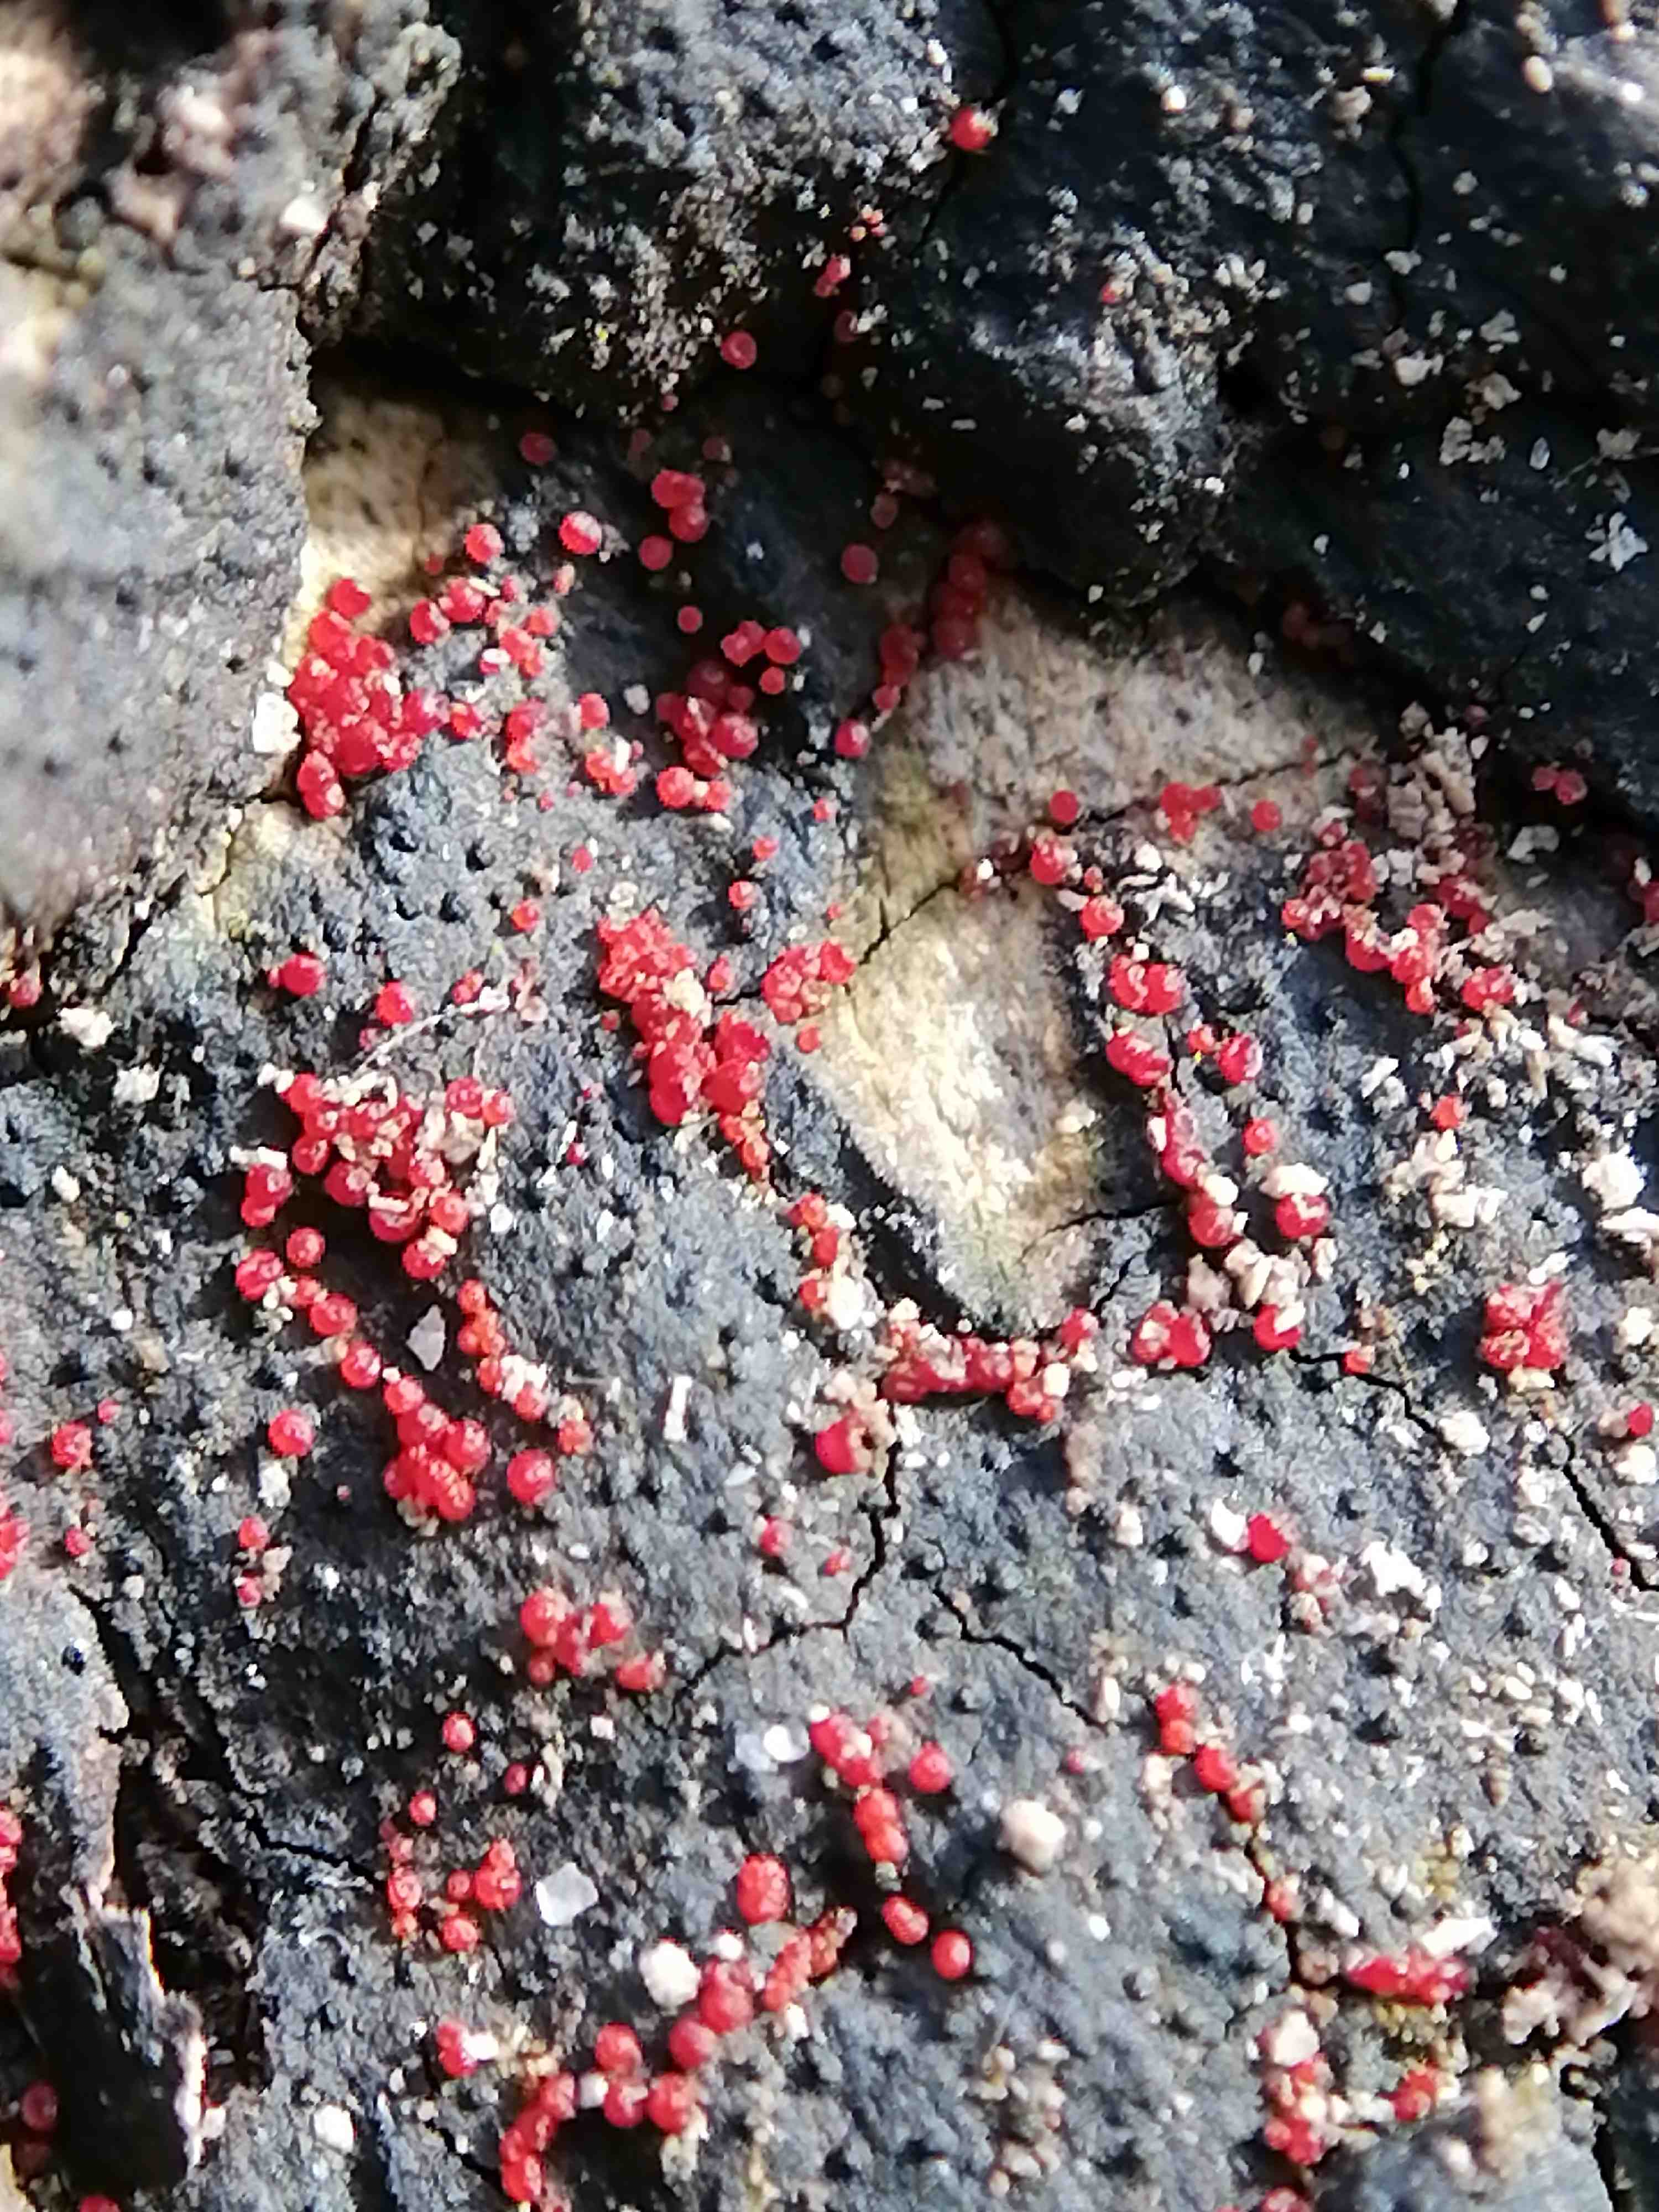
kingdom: Fungi
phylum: Ascomycota
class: Sordariomycetes
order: Hypocreales
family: Nectriaceae
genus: Dialonectria
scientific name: Dialonectria episphaeria
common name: kulskorpe-cinnobersvamp
